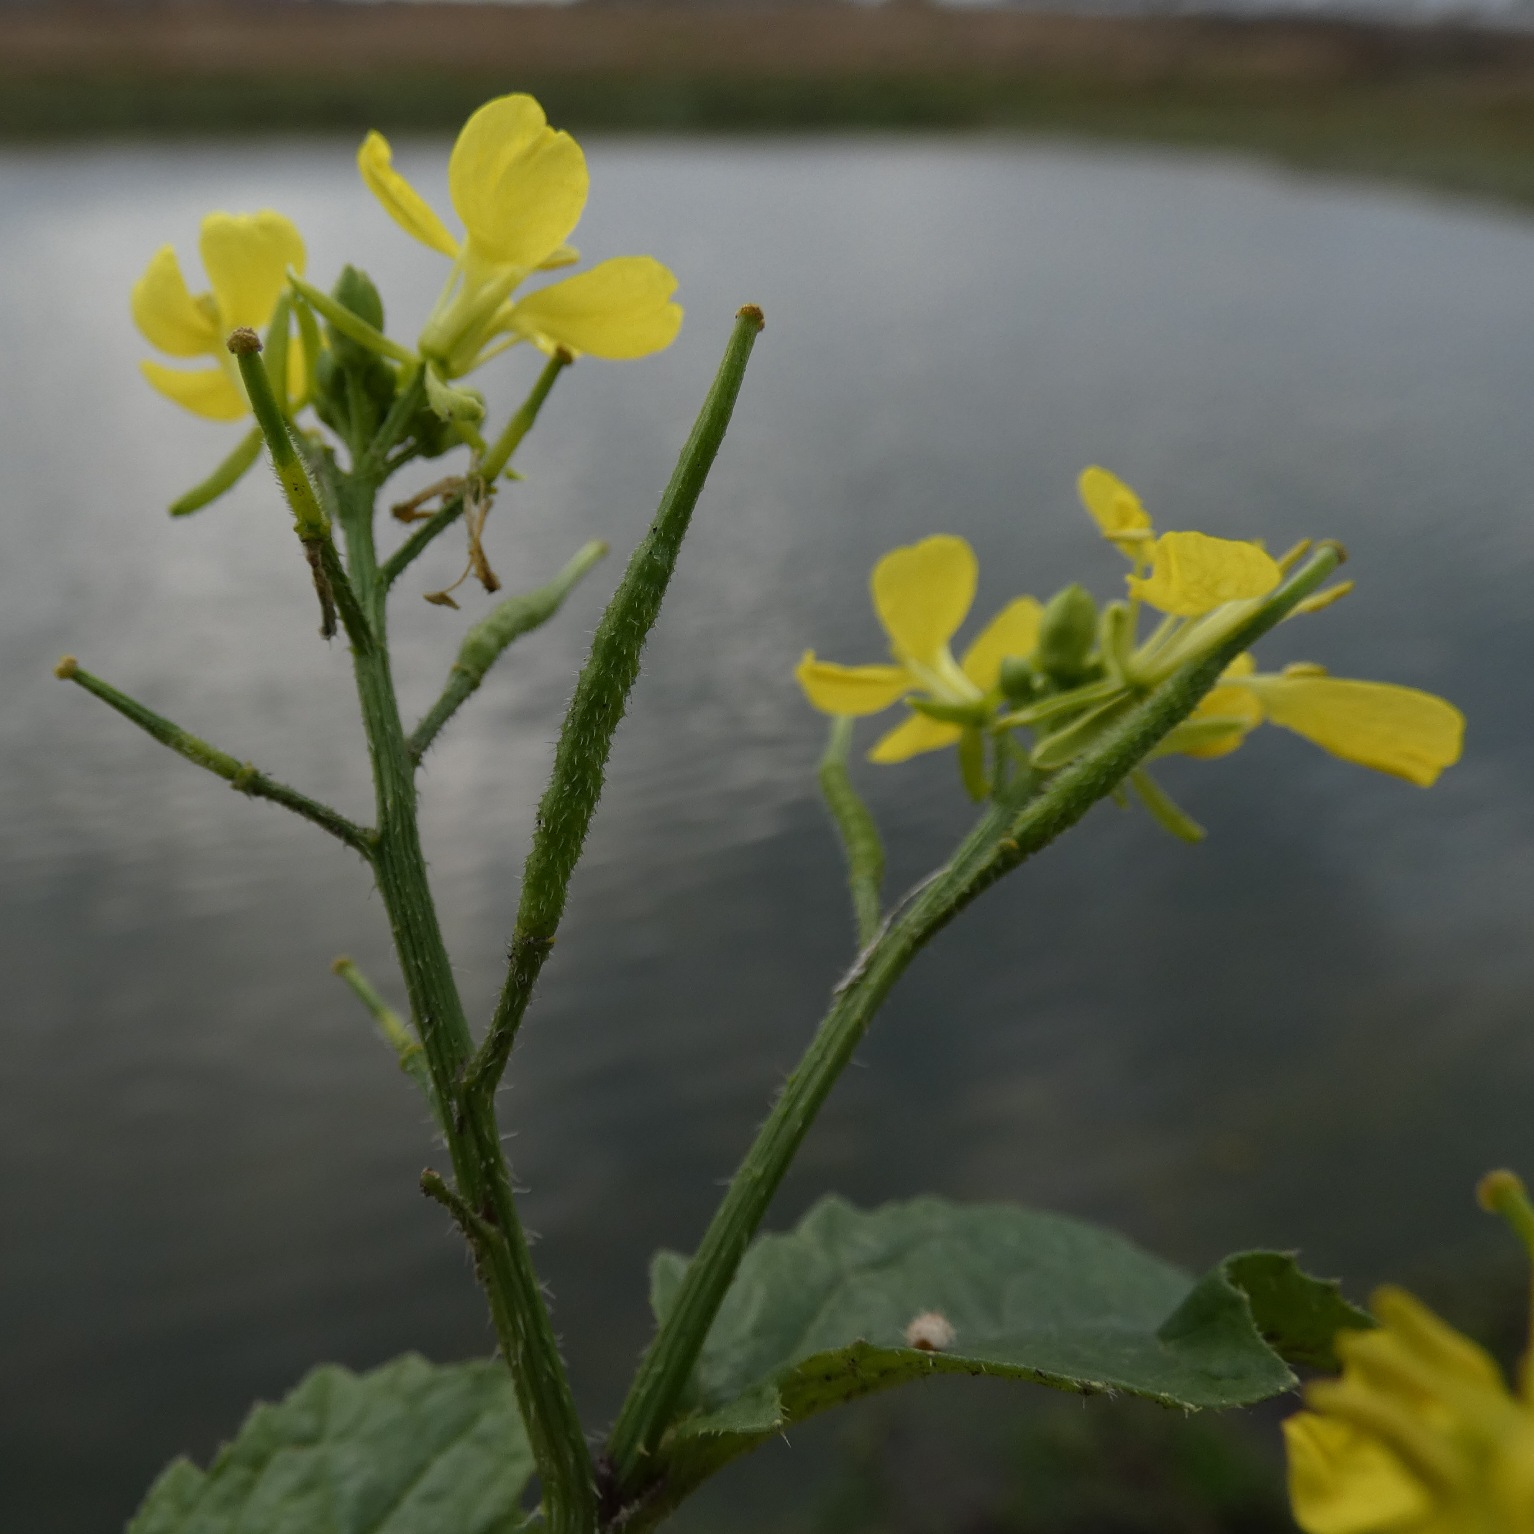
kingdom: Plantae
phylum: Tracheophyta
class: Magnoliopsida
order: Brassicales
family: Brassicaceae
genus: Sinapis
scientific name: Sinapis arvensis
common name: Ager-sennep
